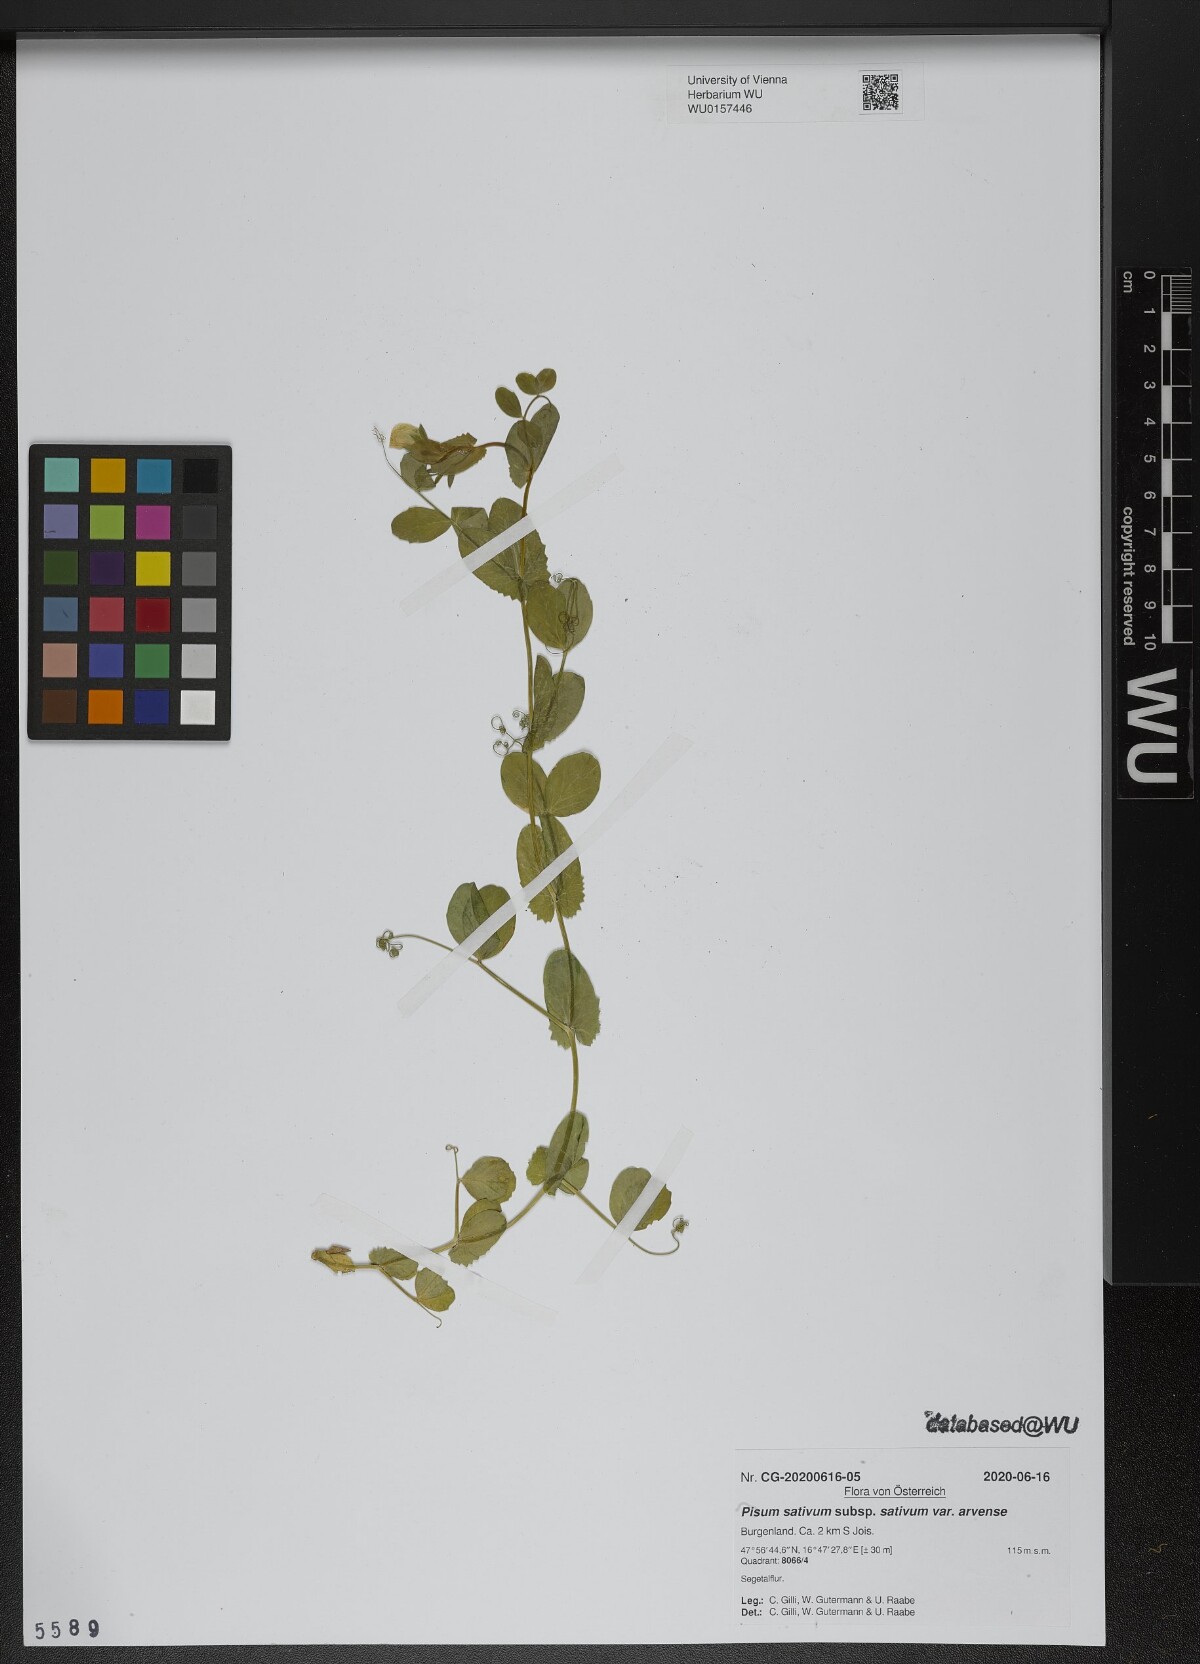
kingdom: Plantae
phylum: Tracheophyta
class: Magnoliopsida
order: Fabales
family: Fabaceae
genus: Lathyrus
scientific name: Lathyrus oleraceus
